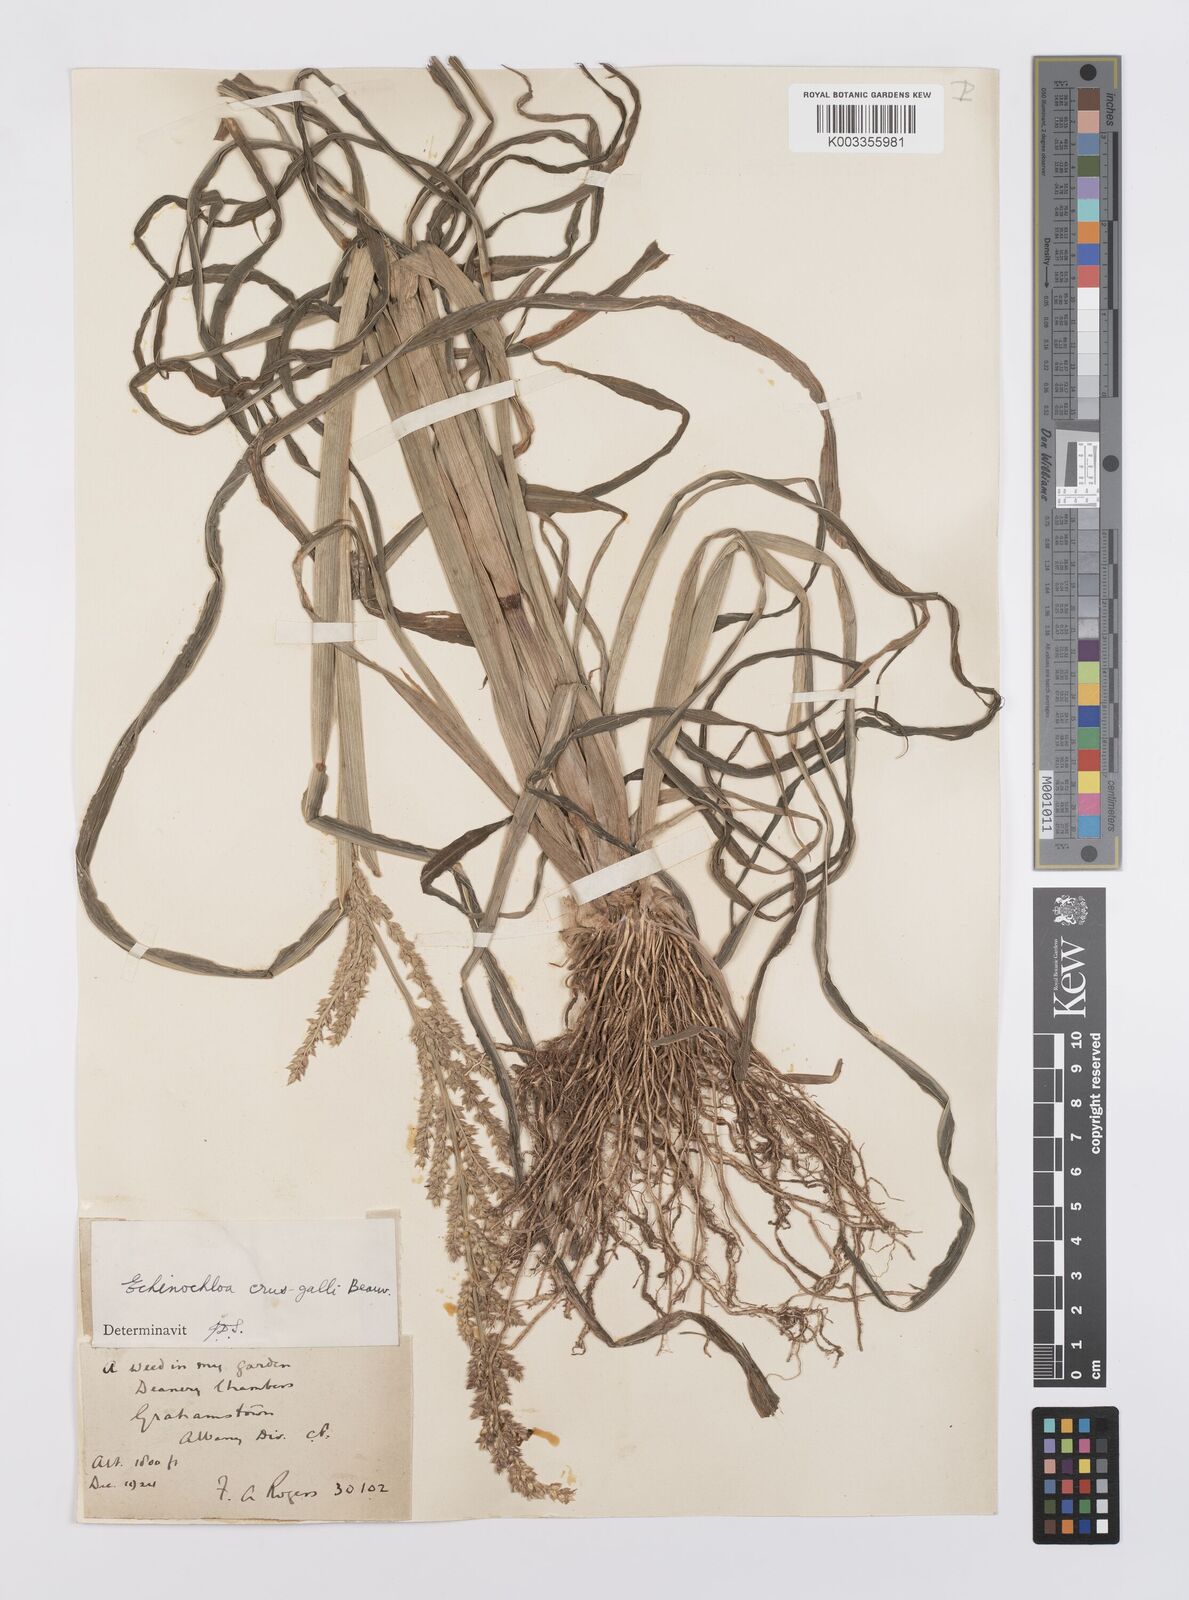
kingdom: Plantae
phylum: Tracheophyta
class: Liliopsida
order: Poales
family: Poaceae
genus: Echinochloa
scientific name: Echinochloa crus-galli
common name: Cockspur
